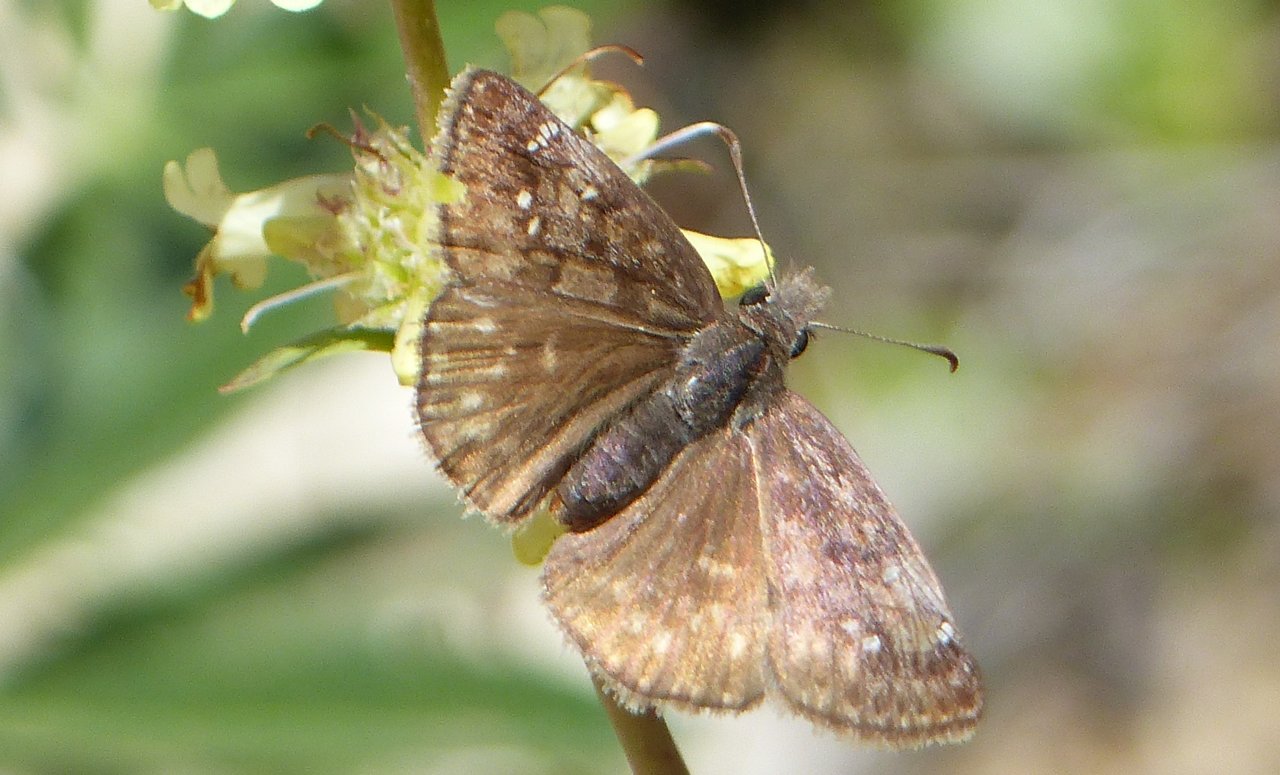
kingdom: Animalia
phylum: Arthropoda
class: Insecta
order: Lepidoptera
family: Hesperiidae
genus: Gesta
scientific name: Gesta
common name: Persius Duskywing
